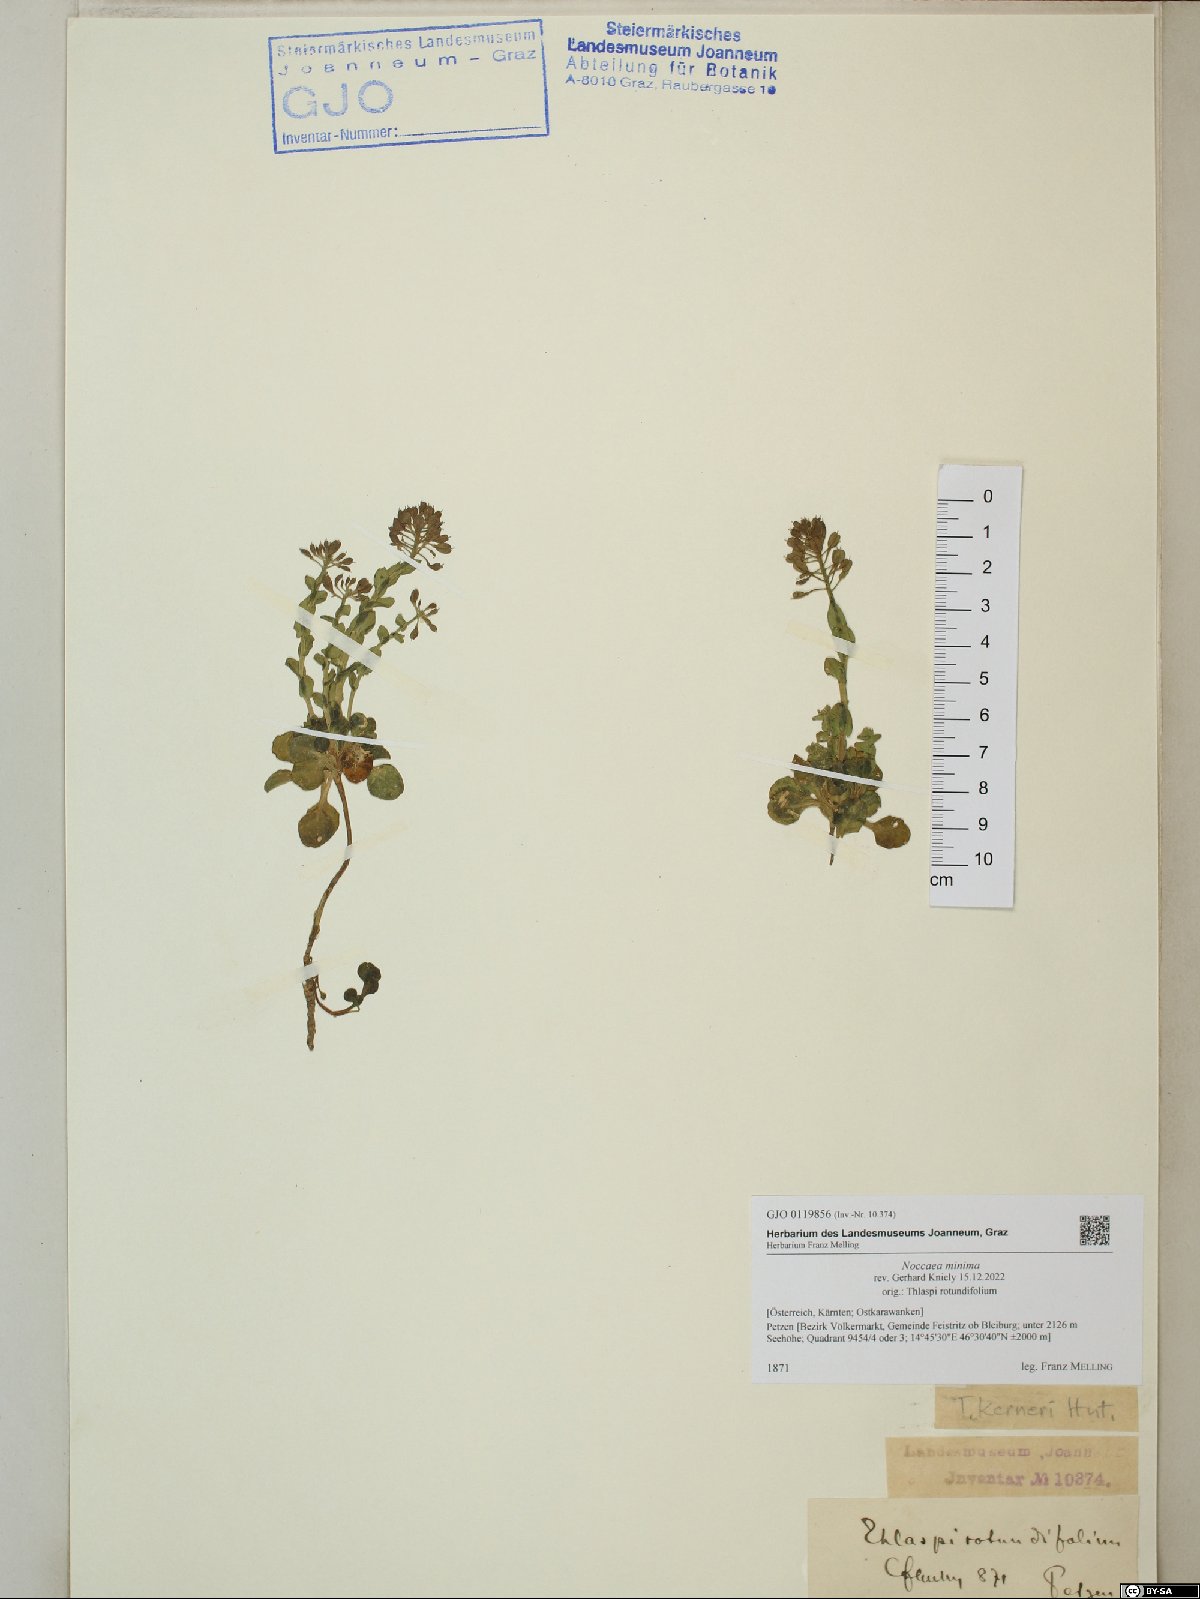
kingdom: Plantae
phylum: Tracheophyta
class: Magnoliopsida
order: Brassicales
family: Brassicaceae
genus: Noccaea
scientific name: Noccaea minima
